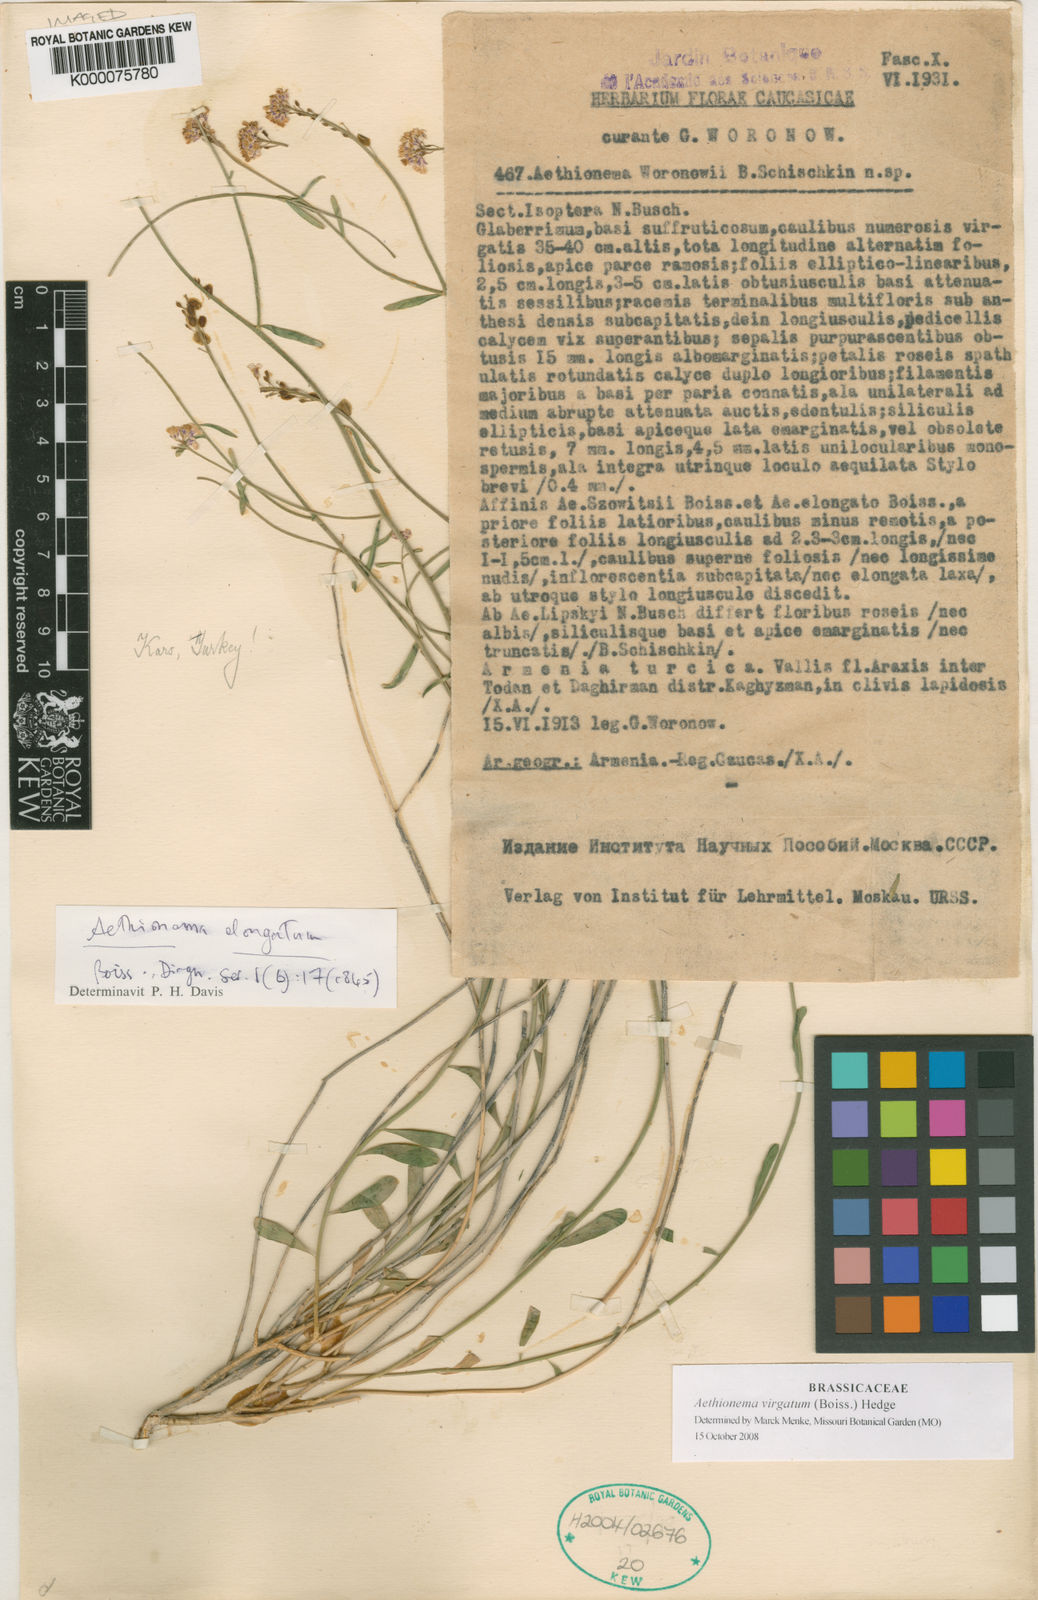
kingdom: Plantae
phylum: Tracheophyta
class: Magnoliopsida
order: Brassicales
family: Brassicaceae
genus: Aethionema
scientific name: Aethionema virgatum
